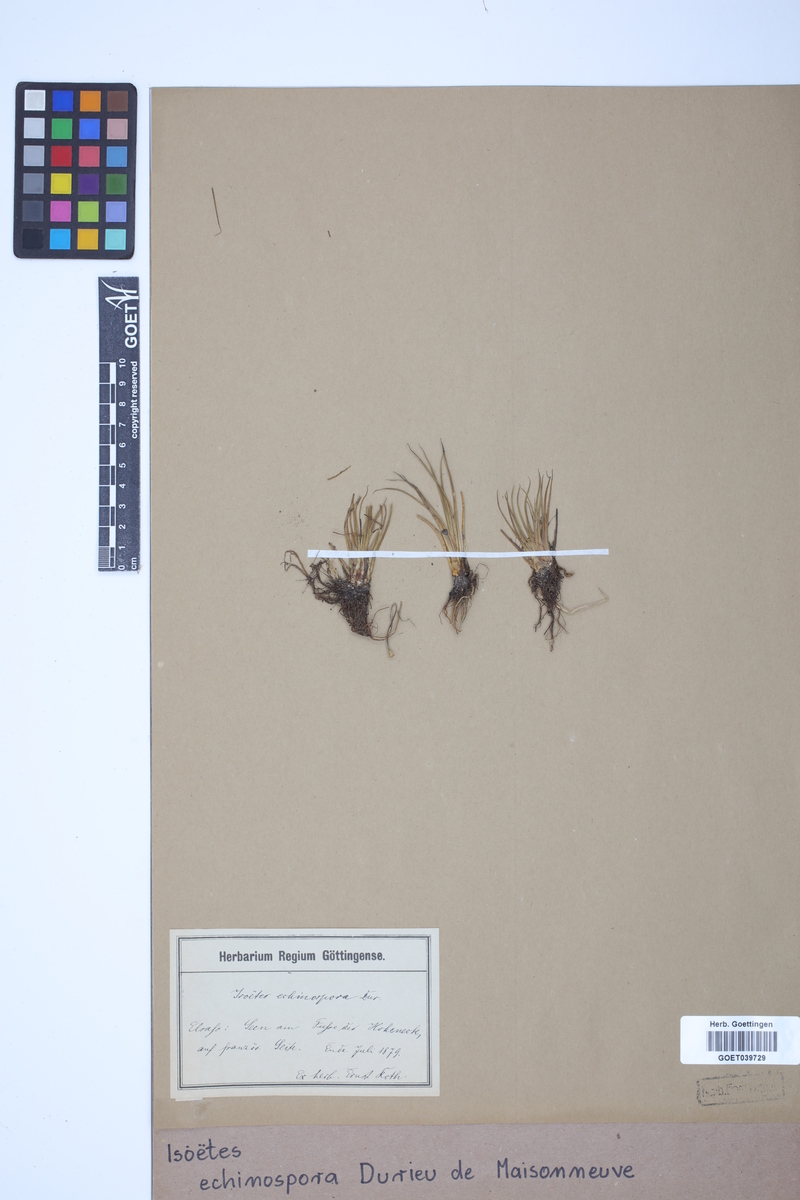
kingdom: Plantae
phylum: Tracheophyta
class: Lycopodiopsida
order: Isoetales
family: Isoetaceae
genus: Isoetes
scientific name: Isoetes echinospora
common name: Spring quillwort
